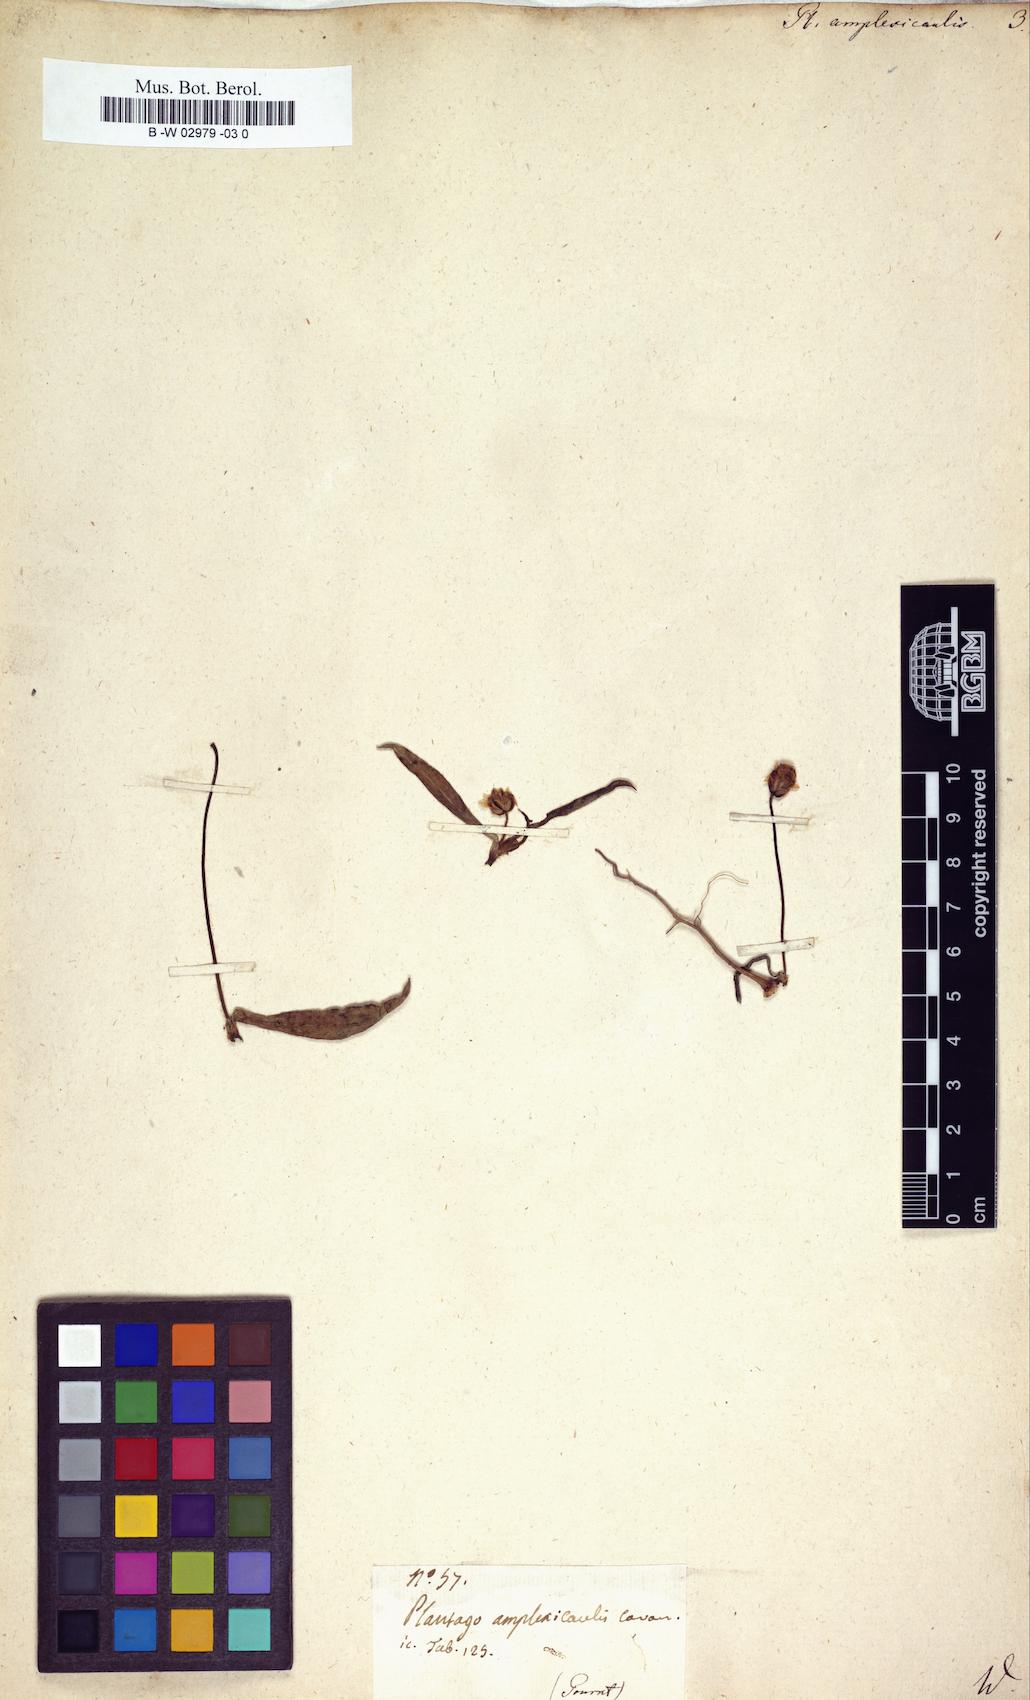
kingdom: Plantae
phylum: Tracheophyta
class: Magnoliopsida
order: Lamiales
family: Plantaginaceae
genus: Plantago
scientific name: Plantago amplexicaulis
